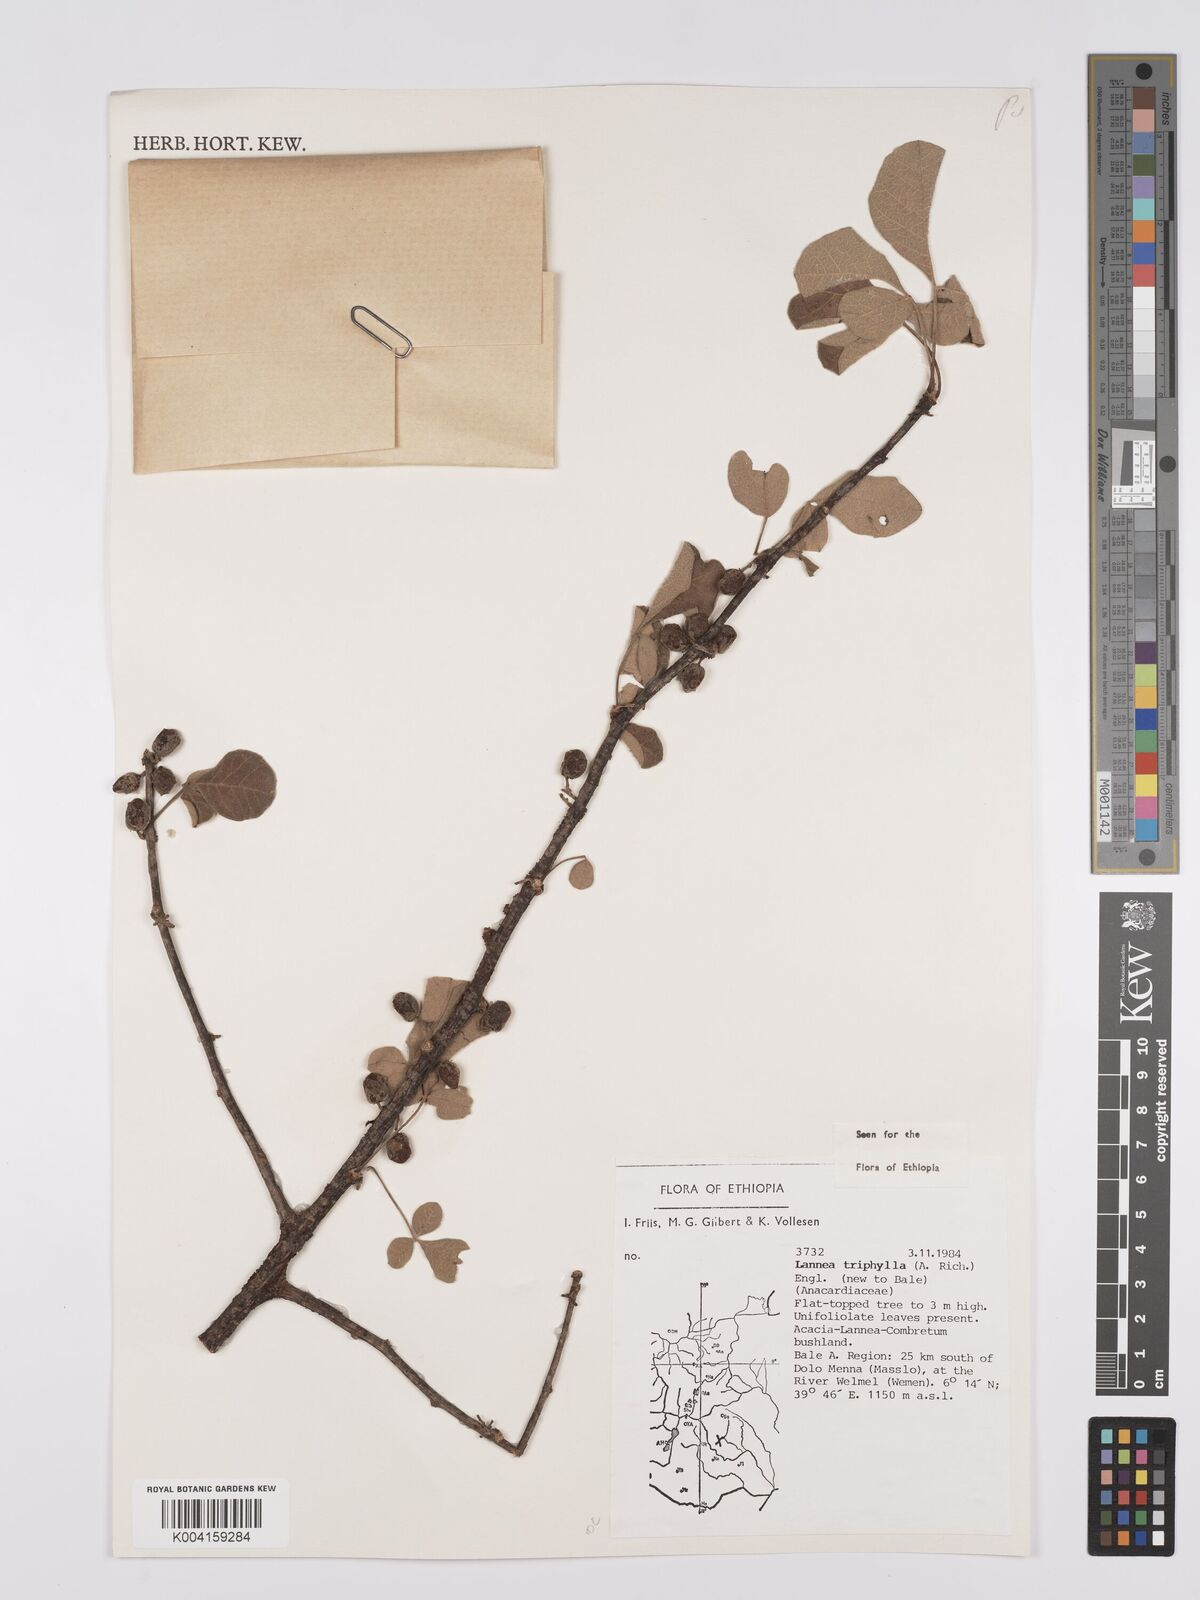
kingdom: Plantae
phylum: Tracheophyta
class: Magnoliopsida
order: Sapindales
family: Anacardiaceae
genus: Lannea
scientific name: Lannea triphylla
